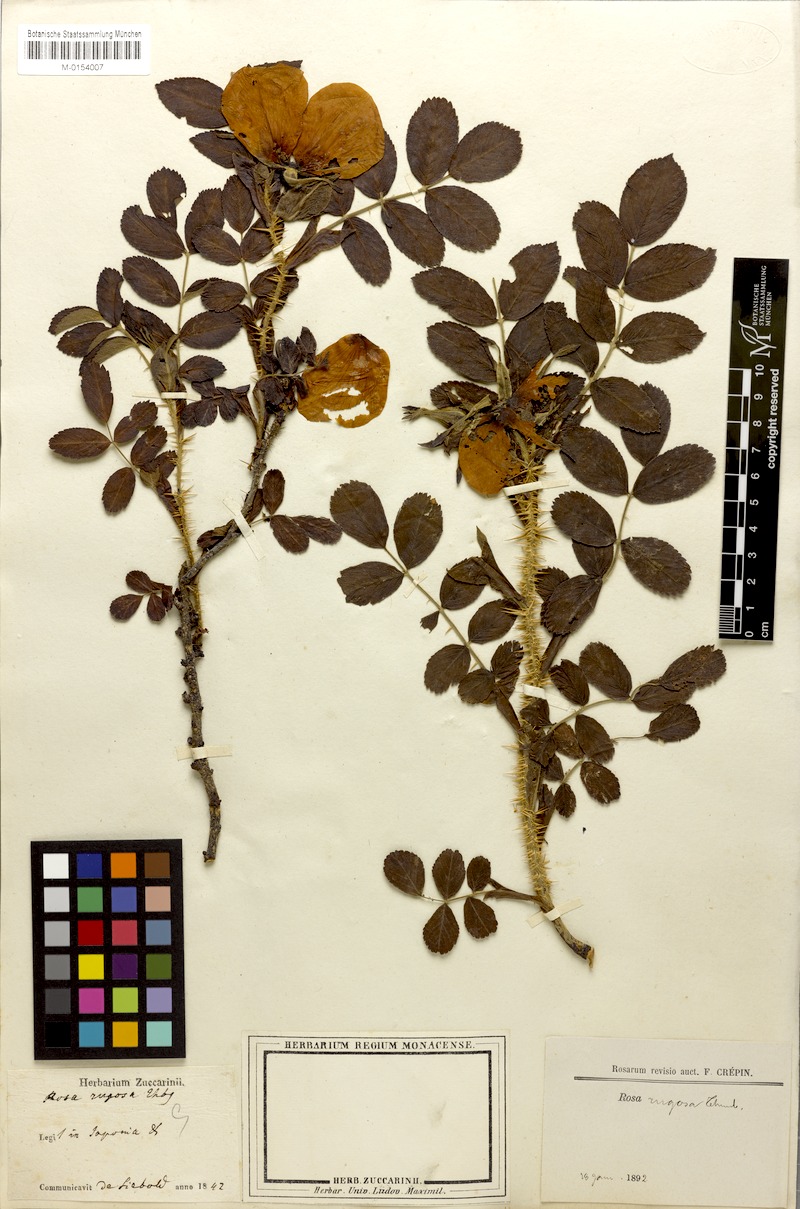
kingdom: Plantae
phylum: Tracheophyta
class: Magnoliopsida
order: Rosales
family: Rosaceae
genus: Rosa
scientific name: Rosa rugosa
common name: Japanese rose
